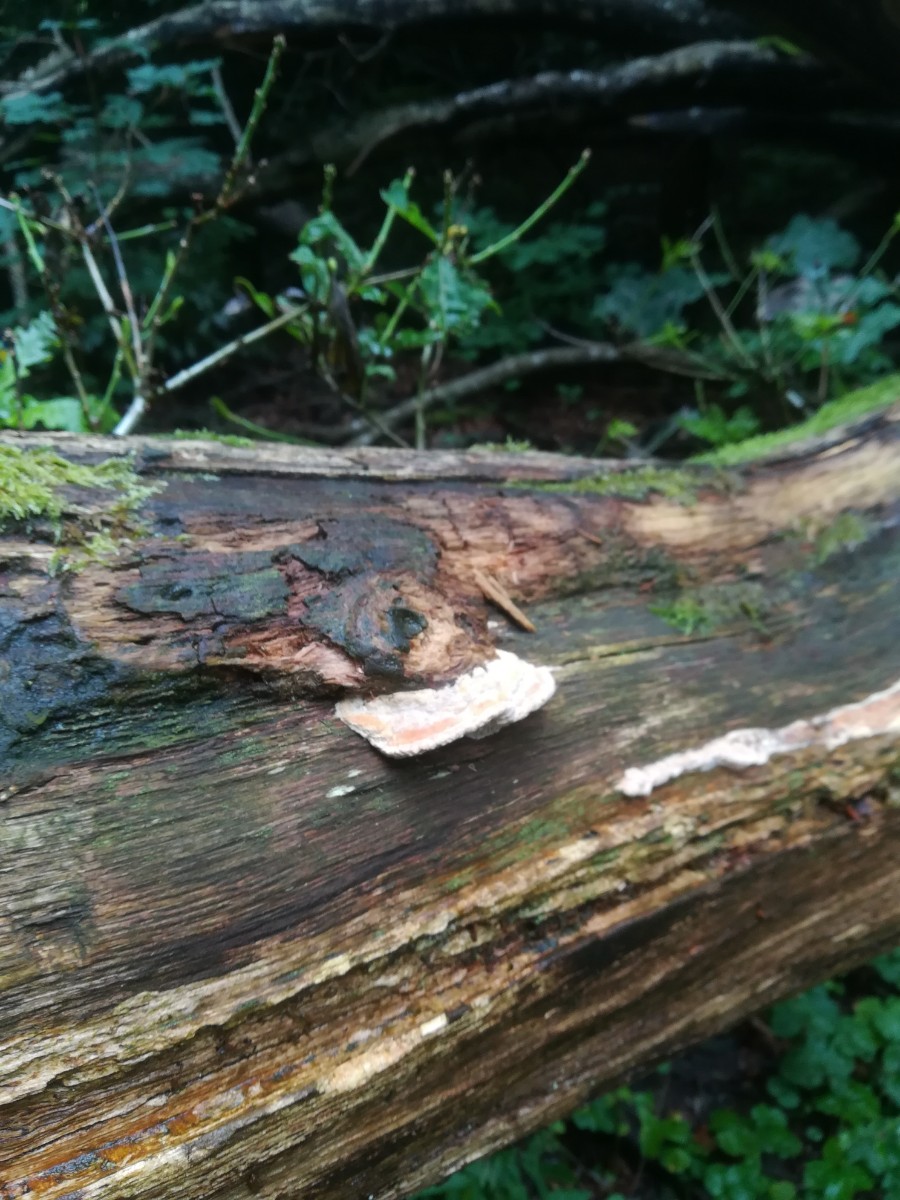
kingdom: Fungi
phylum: Basidiomycota
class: Agaricomycetes
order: Polyporales
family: Fomitopsidaceae
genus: Daedalea
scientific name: Daedalea quercina
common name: ege-labyrintsvamp
